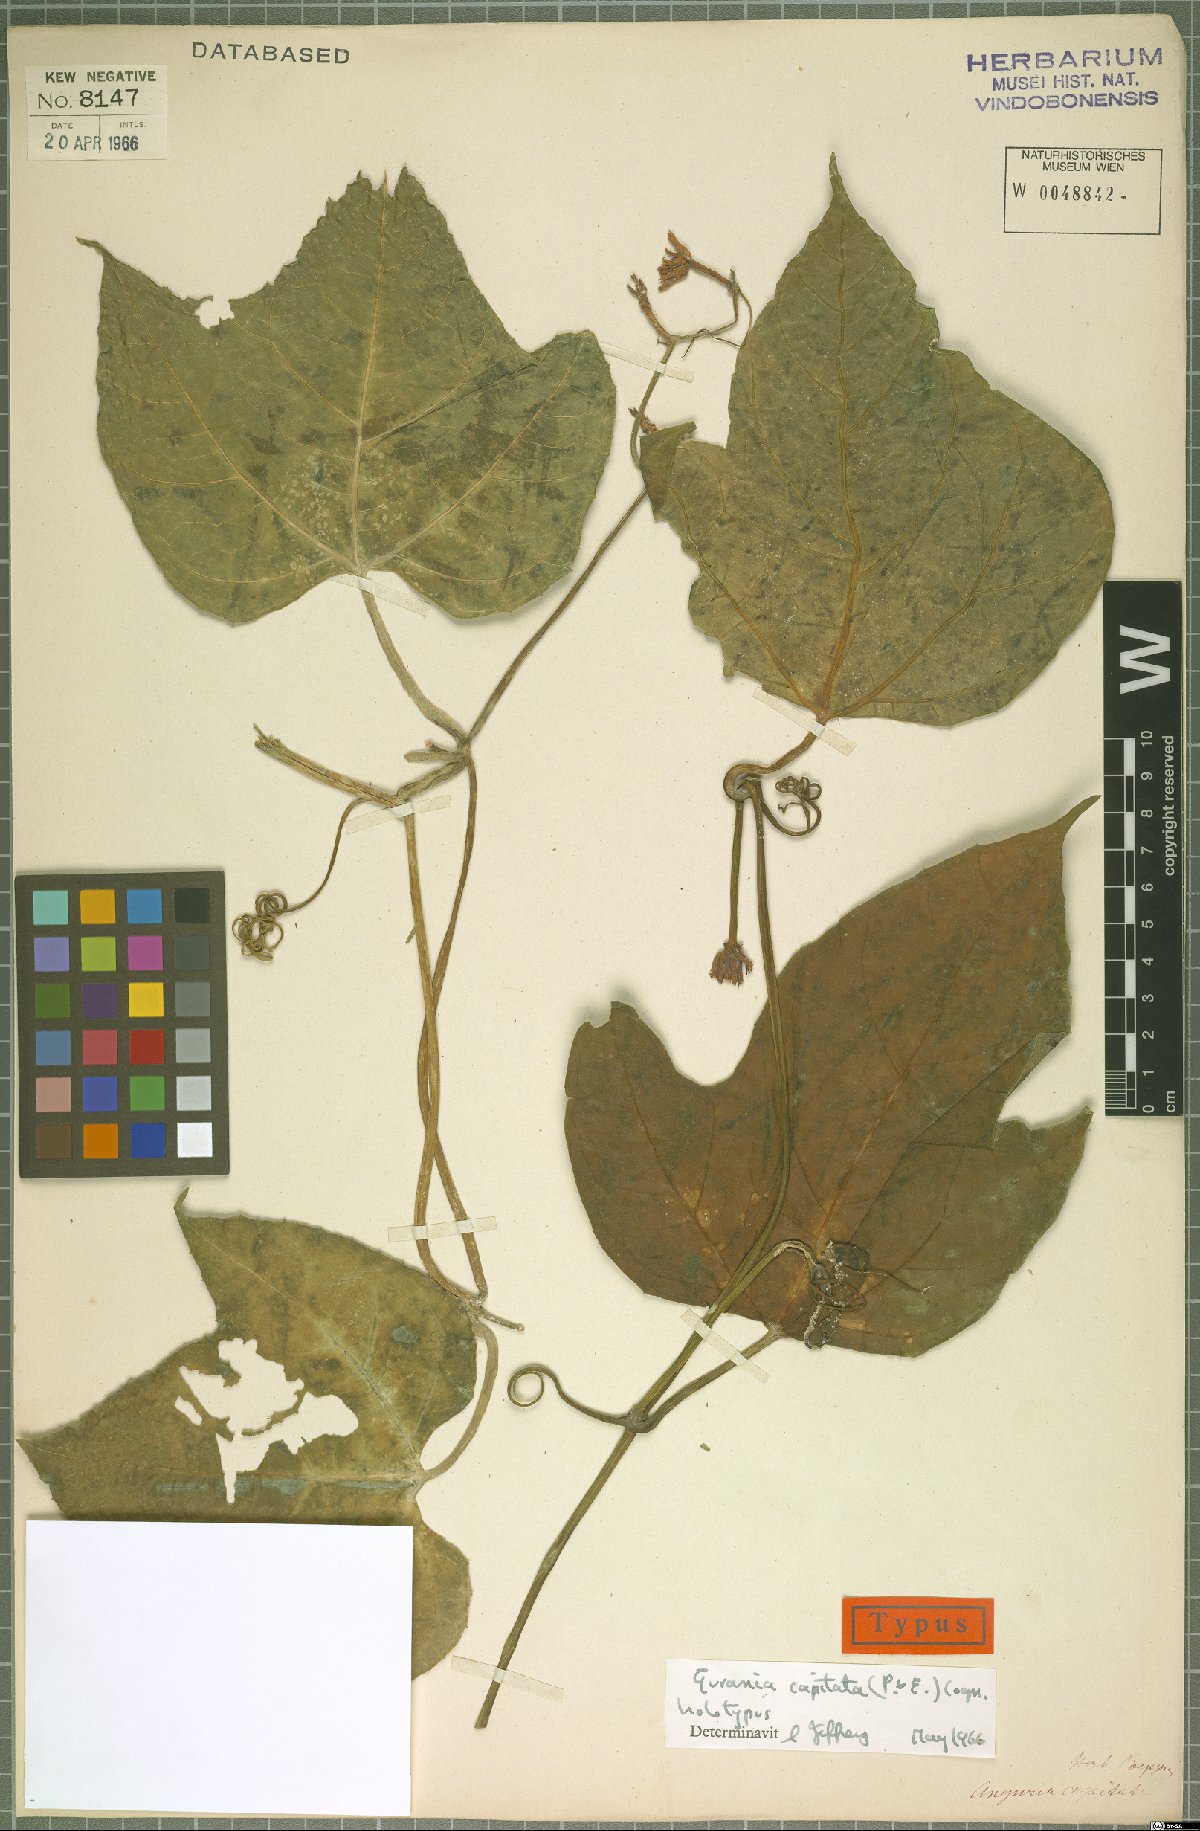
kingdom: Plantae
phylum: Tracheophyta
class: Magnoliopsida
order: Cucurbitales
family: Cucurbitaceae
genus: Gurania
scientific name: Gurania capitata
